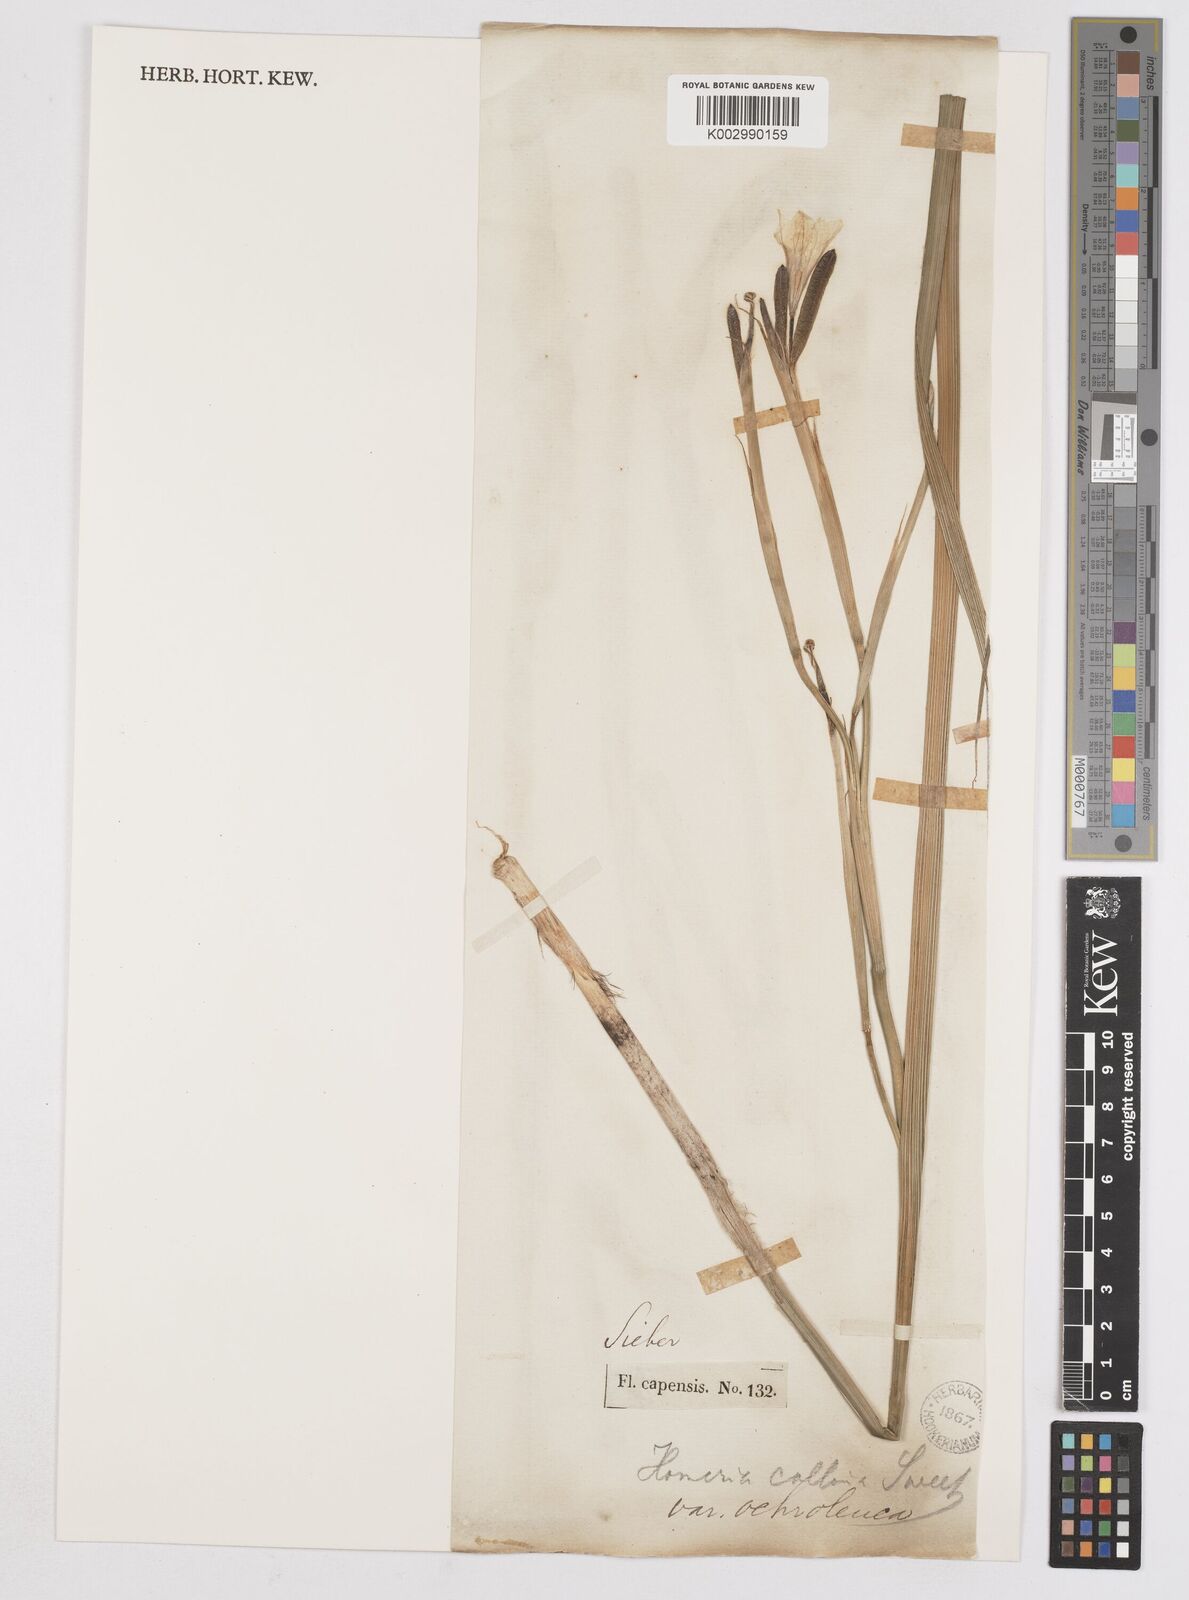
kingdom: Plantae
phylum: Tracheophyta
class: Liliopsida
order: Asparagales
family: Iridaceae
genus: Moraea
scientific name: Moraea collina
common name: Cape-tulip
